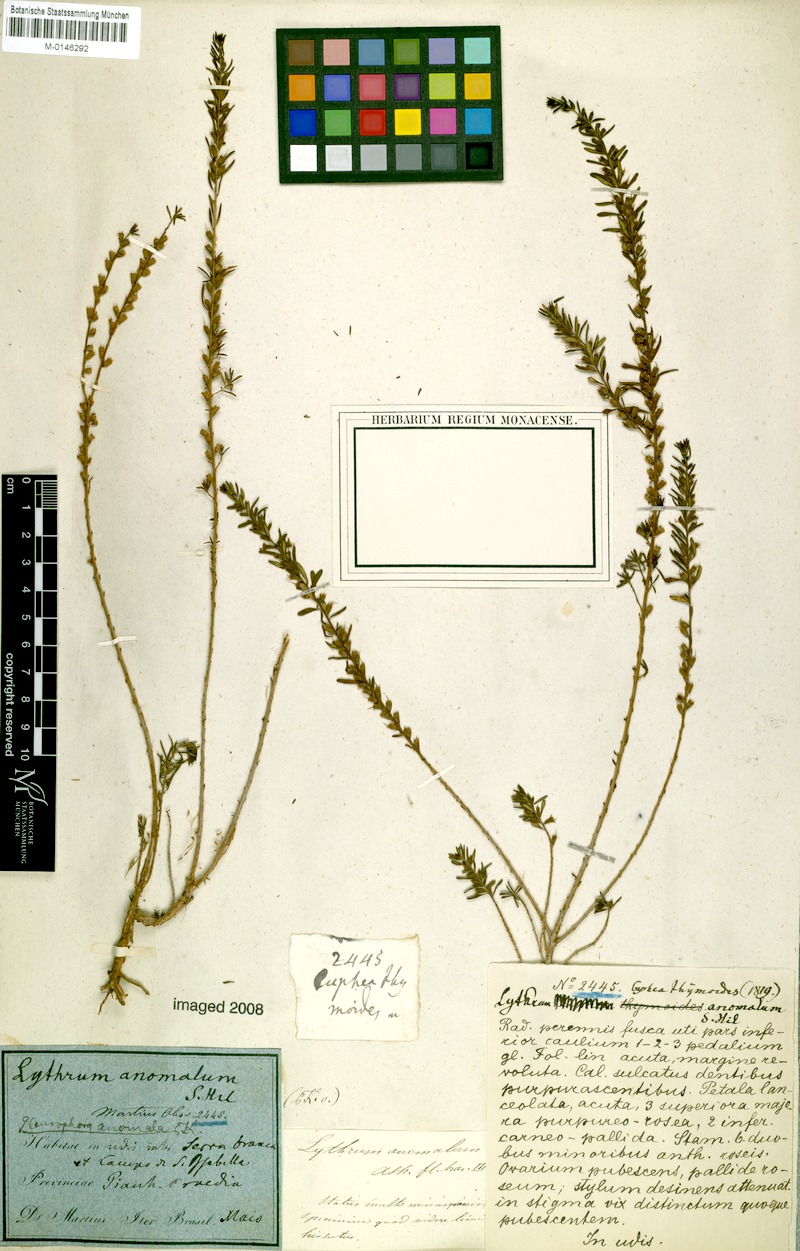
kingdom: Plantae
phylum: Tracheophyta
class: Magnoliopsida
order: Myrtales
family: Lythraceae
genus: Pleurophora
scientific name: Pleurophora anomala
